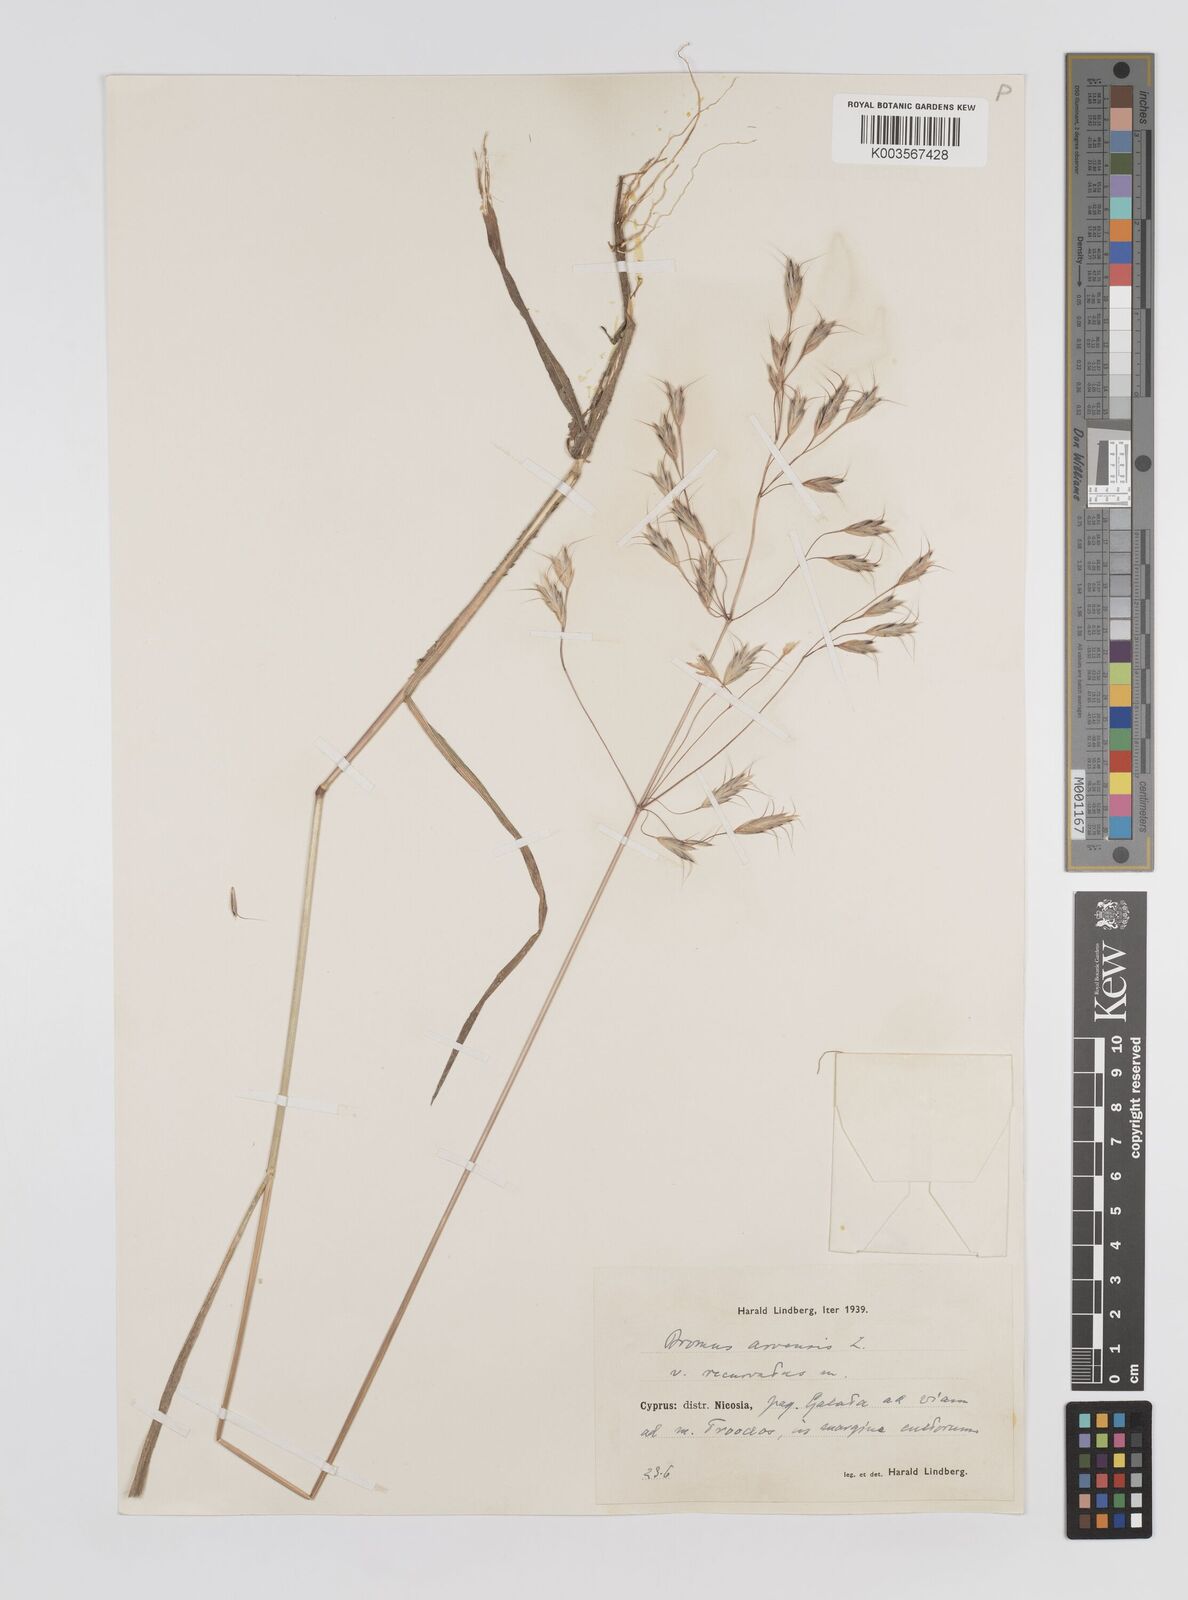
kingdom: Plantae
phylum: Tracheophyta
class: Liliopsida
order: Poales
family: Poaceae
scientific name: Poaceae
